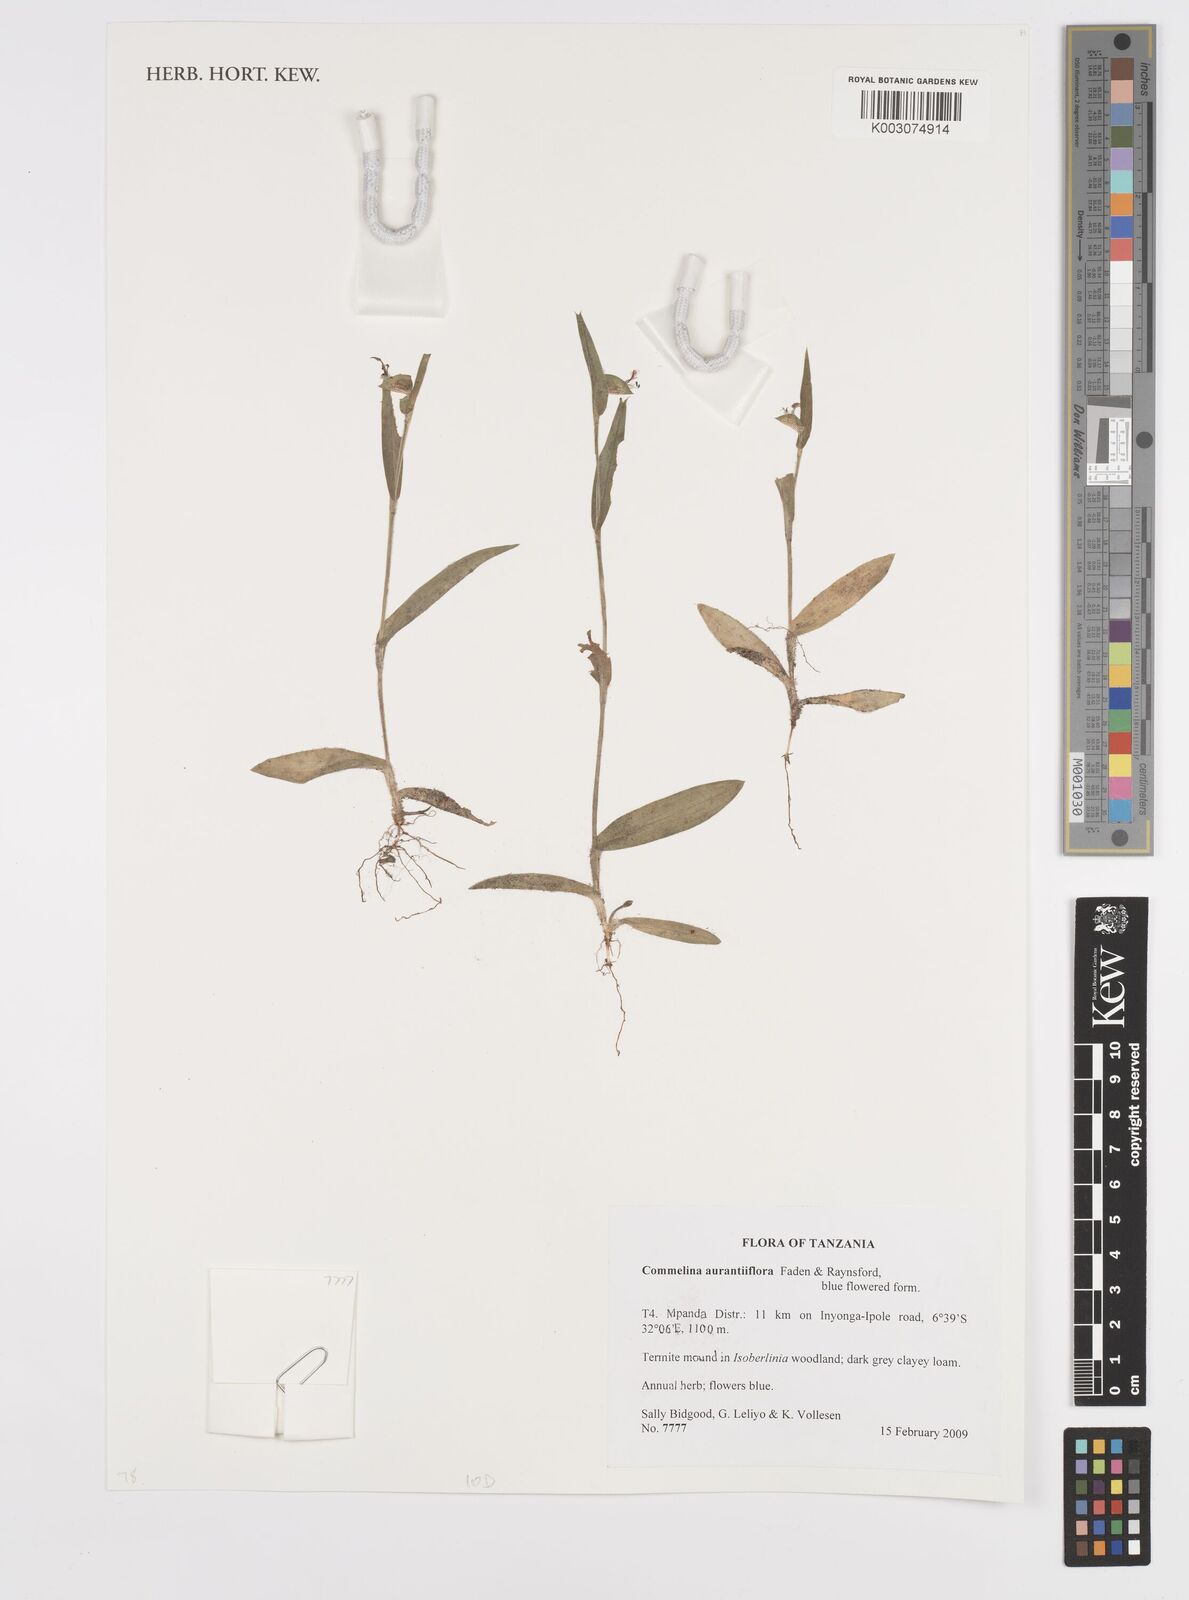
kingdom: Plantae
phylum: Tracheophyta
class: Liliopsida
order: Commelinales
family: Commelinaceae
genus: Commelina
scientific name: Commelina aurantiiflora
